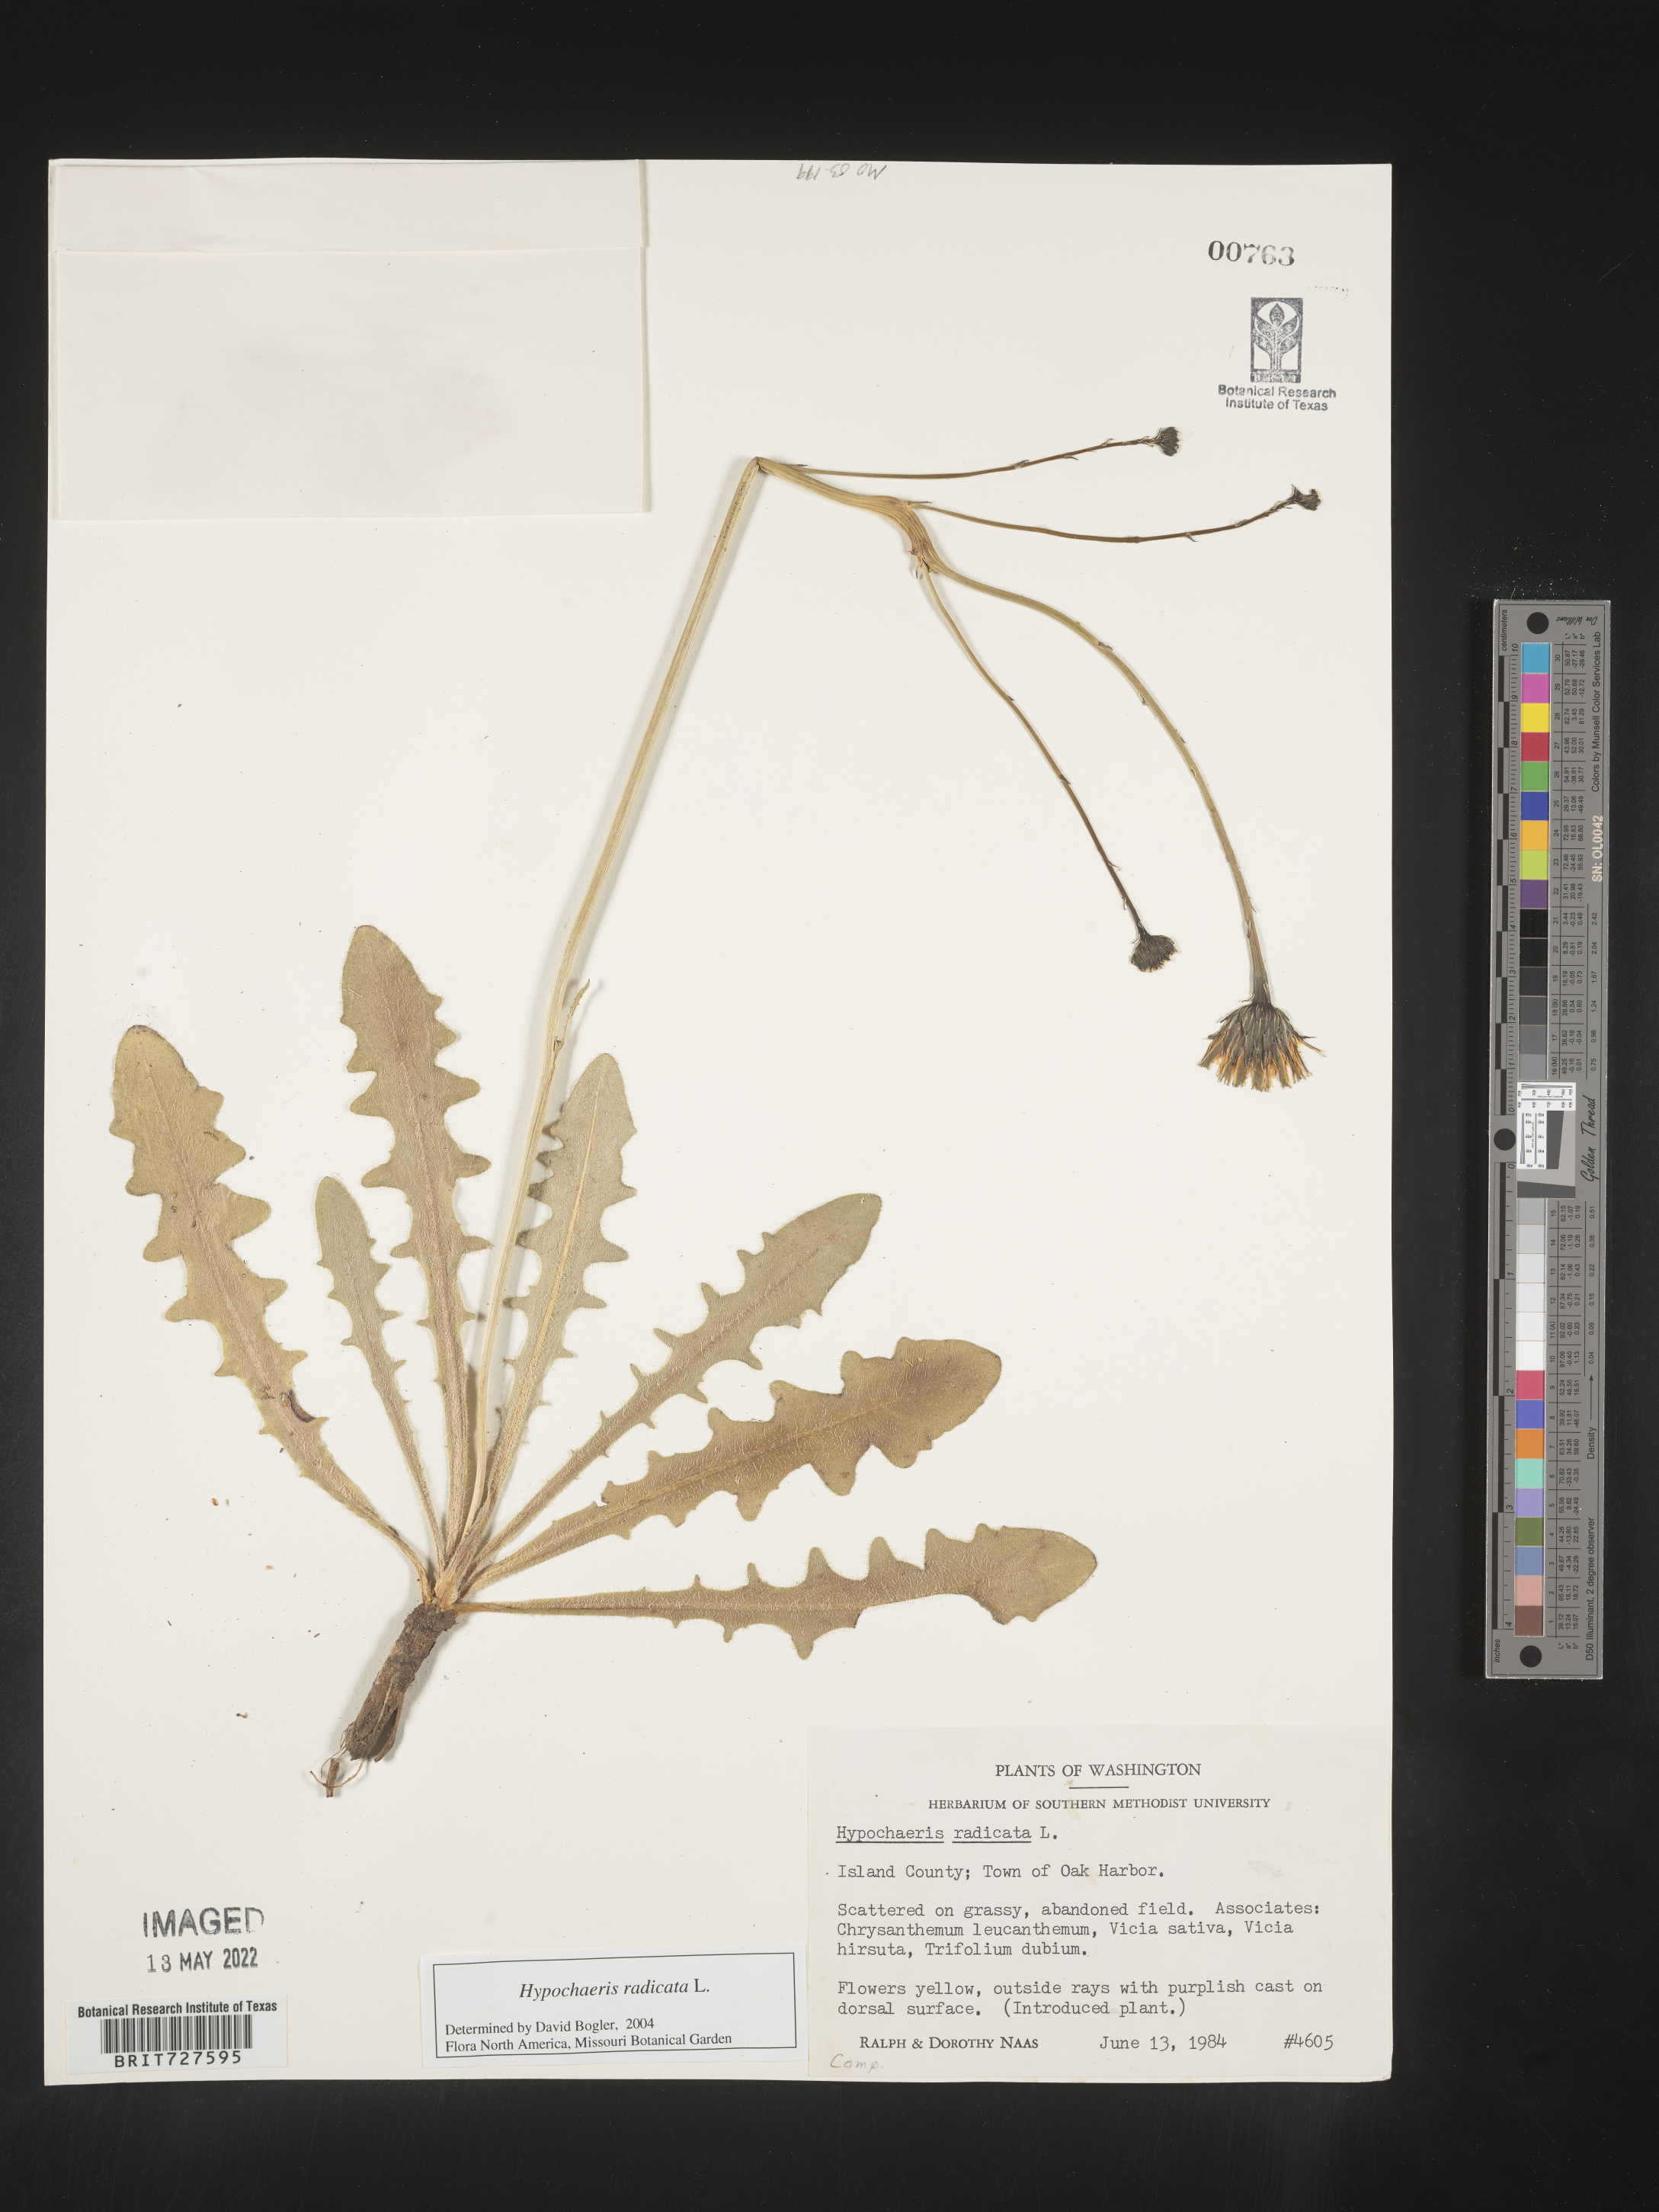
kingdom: Plantae
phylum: Tracheophyta
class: Magnoliopsida
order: Asterales
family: Asteraceae
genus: Hypochaeris
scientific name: Hypochaeris radicata
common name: Flatweed
